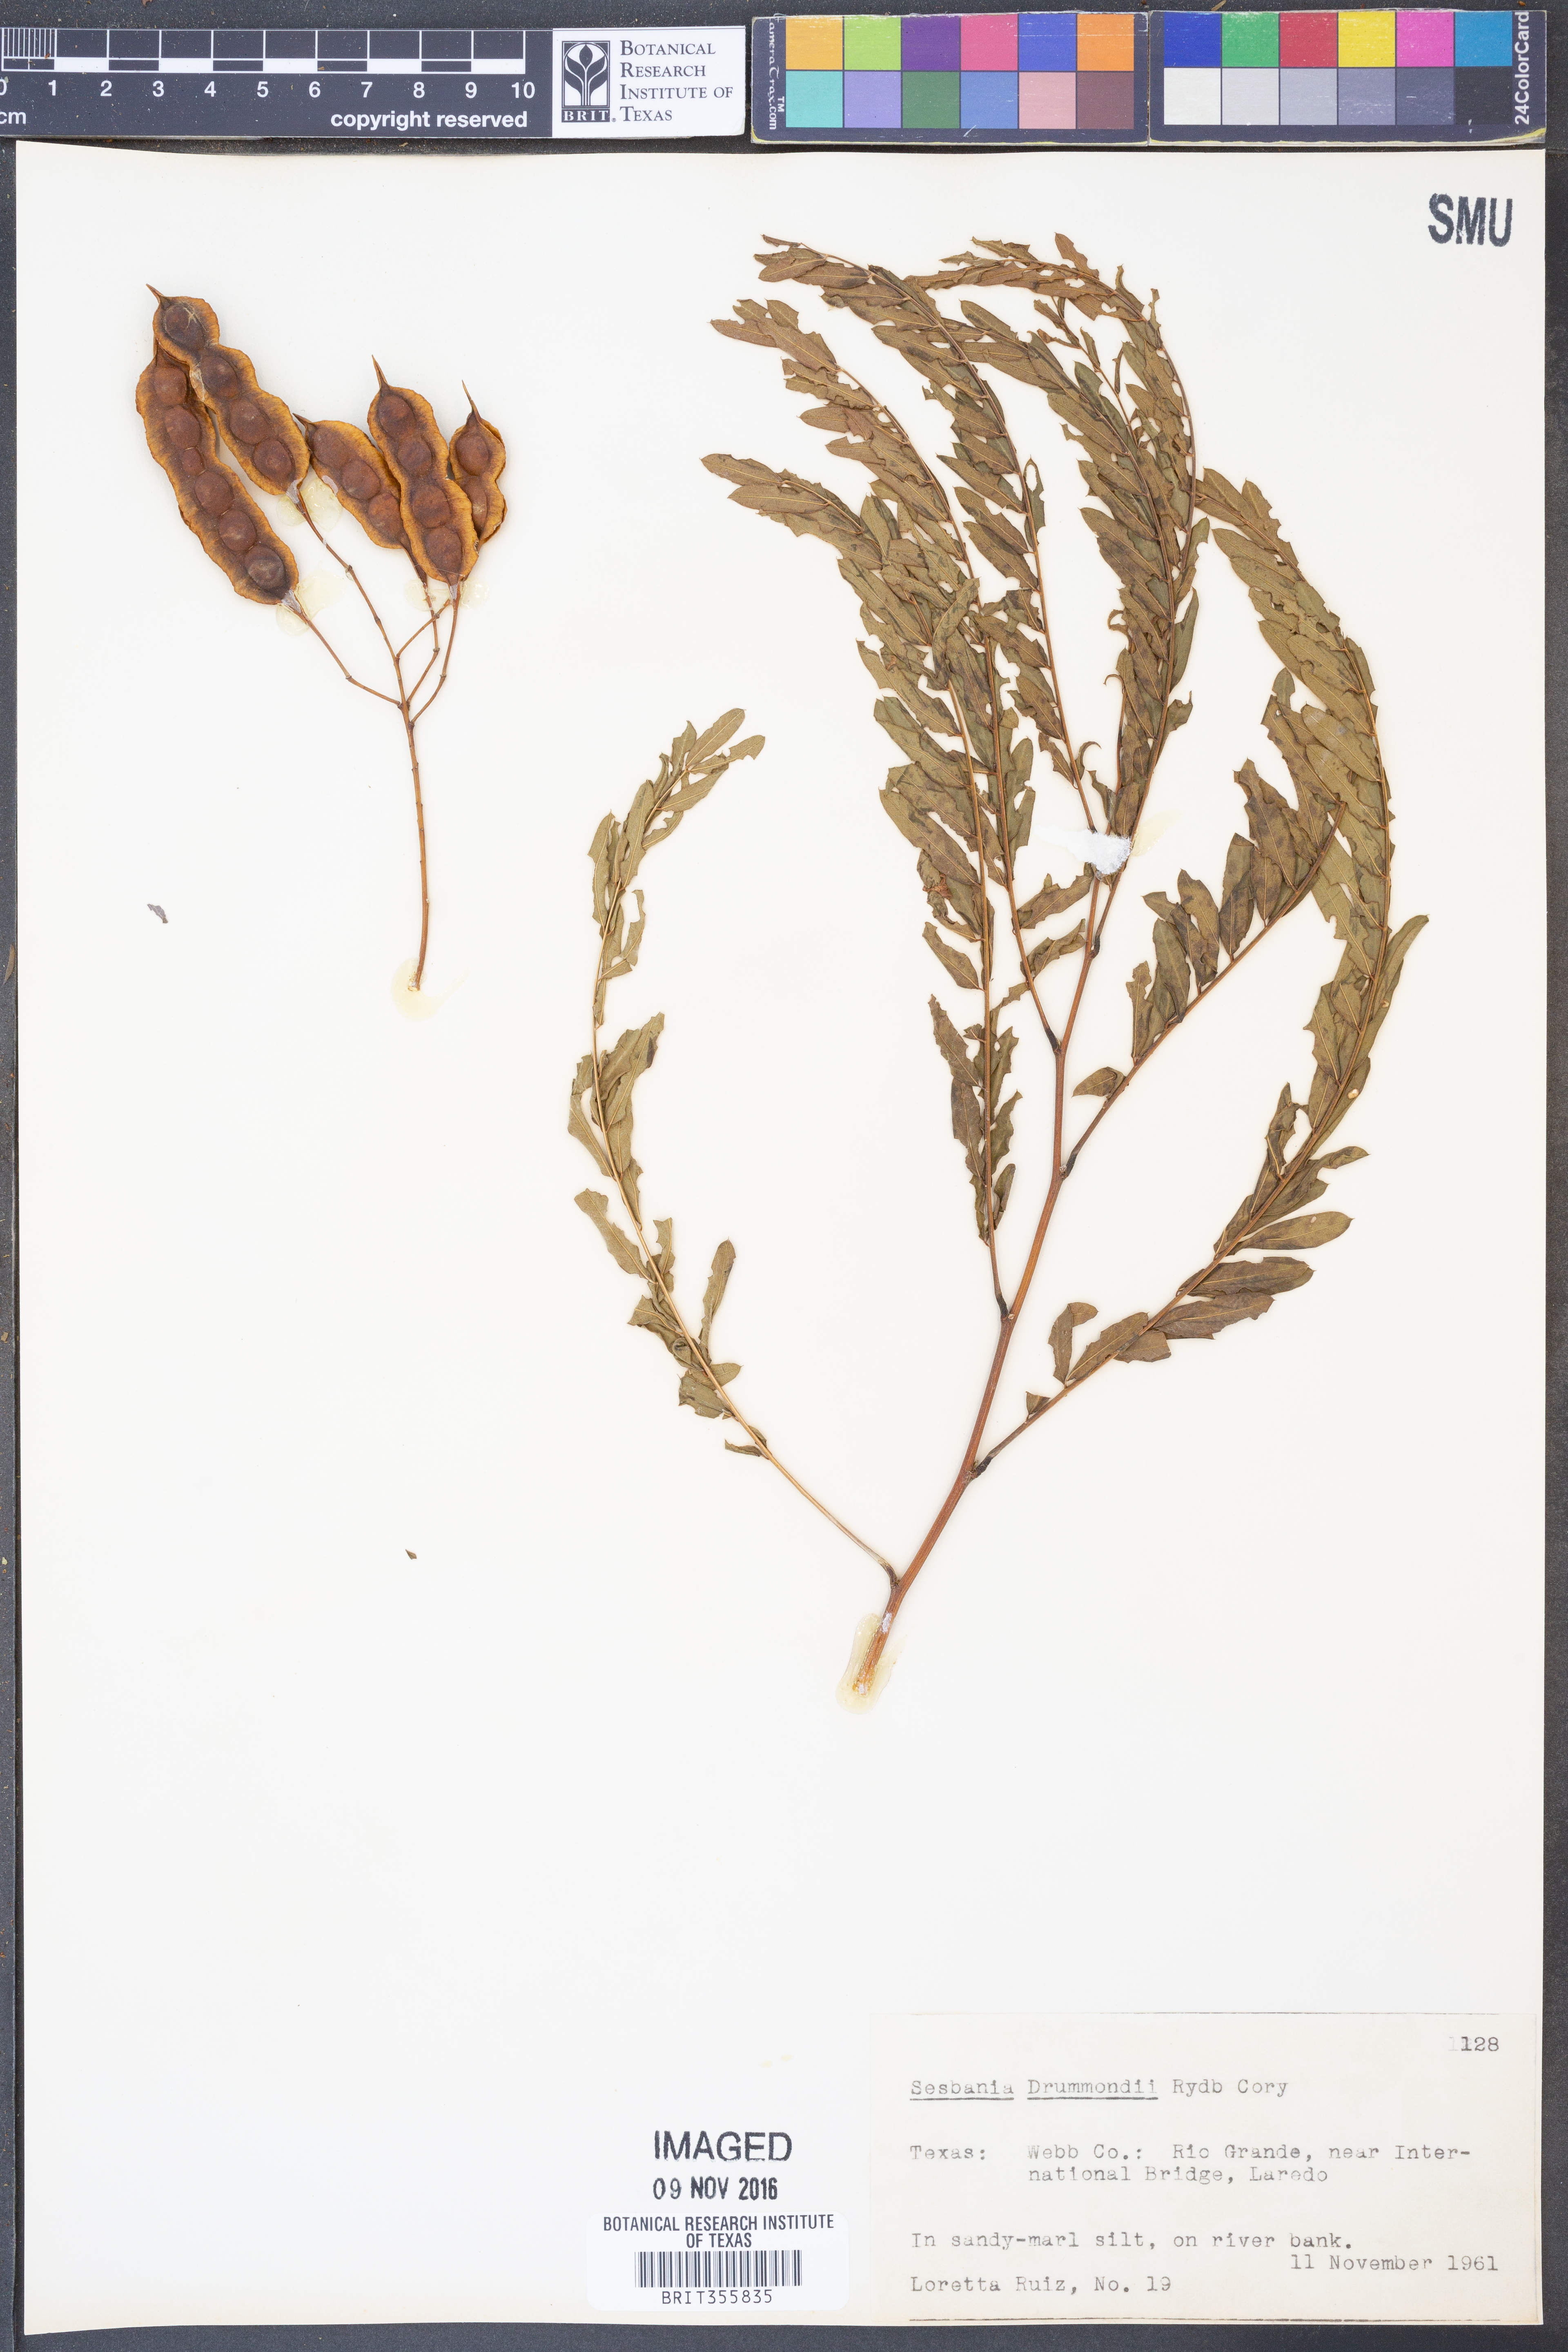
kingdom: Plantae
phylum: Tracheophyta
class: Magnoliopsida
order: Fabales
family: Fabaceae
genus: Sesbania
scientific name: Sesbania drummondii
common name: Poison-bean
